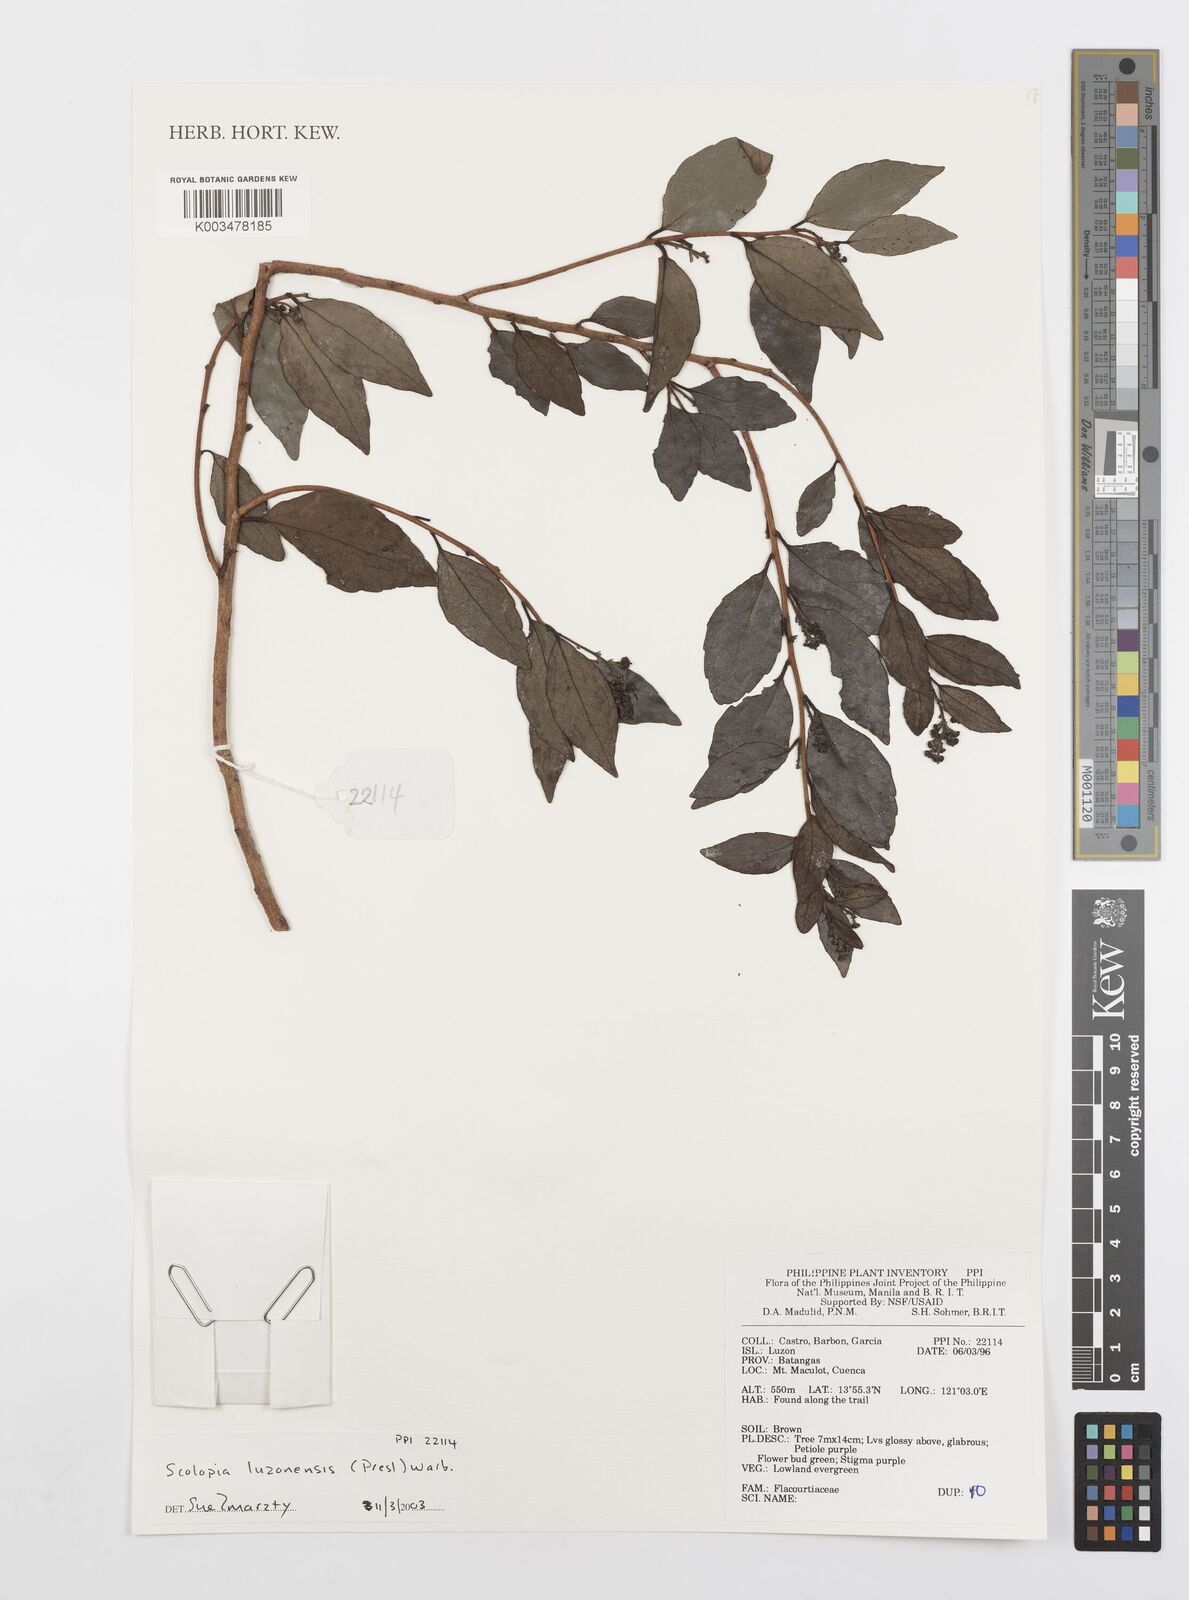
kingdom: Plantae
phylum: Tracheophyta
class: Magnoliopsida
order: Malpighiales
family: Salicaceae
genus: Scolopia
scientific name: Scolopia luzonensis
